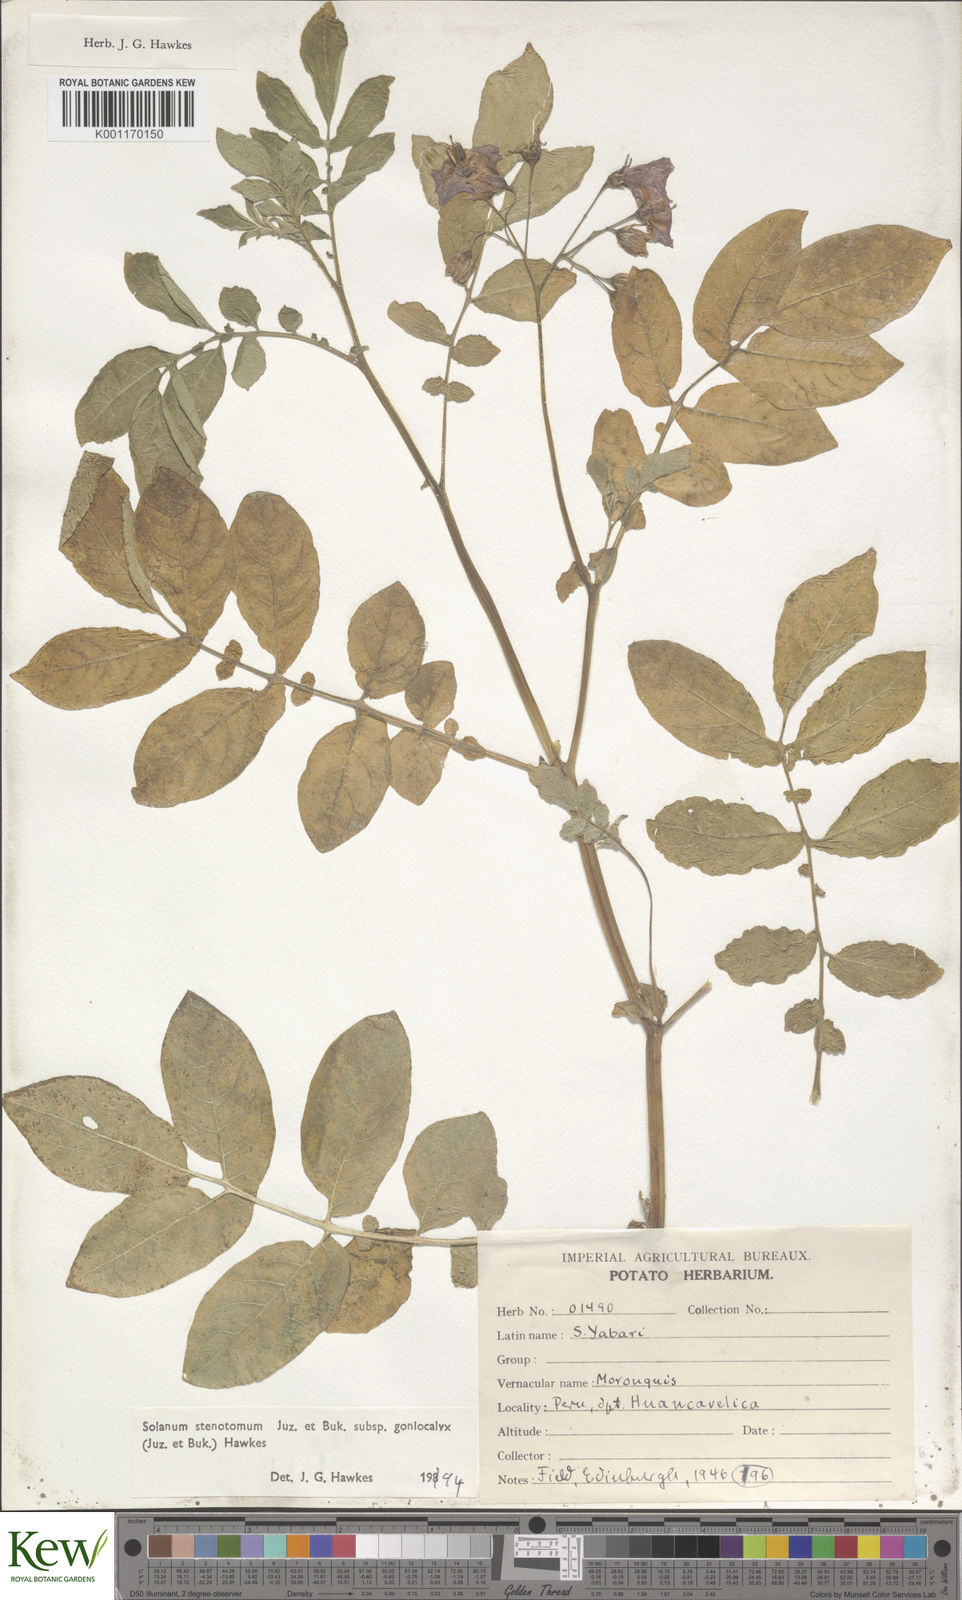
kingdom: Plantae
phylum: Tracheophyta
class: Magnoliopsida
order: Solanales
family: Solanaceae
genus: Solanum
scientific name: Solanum tuberosum
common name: Potato
